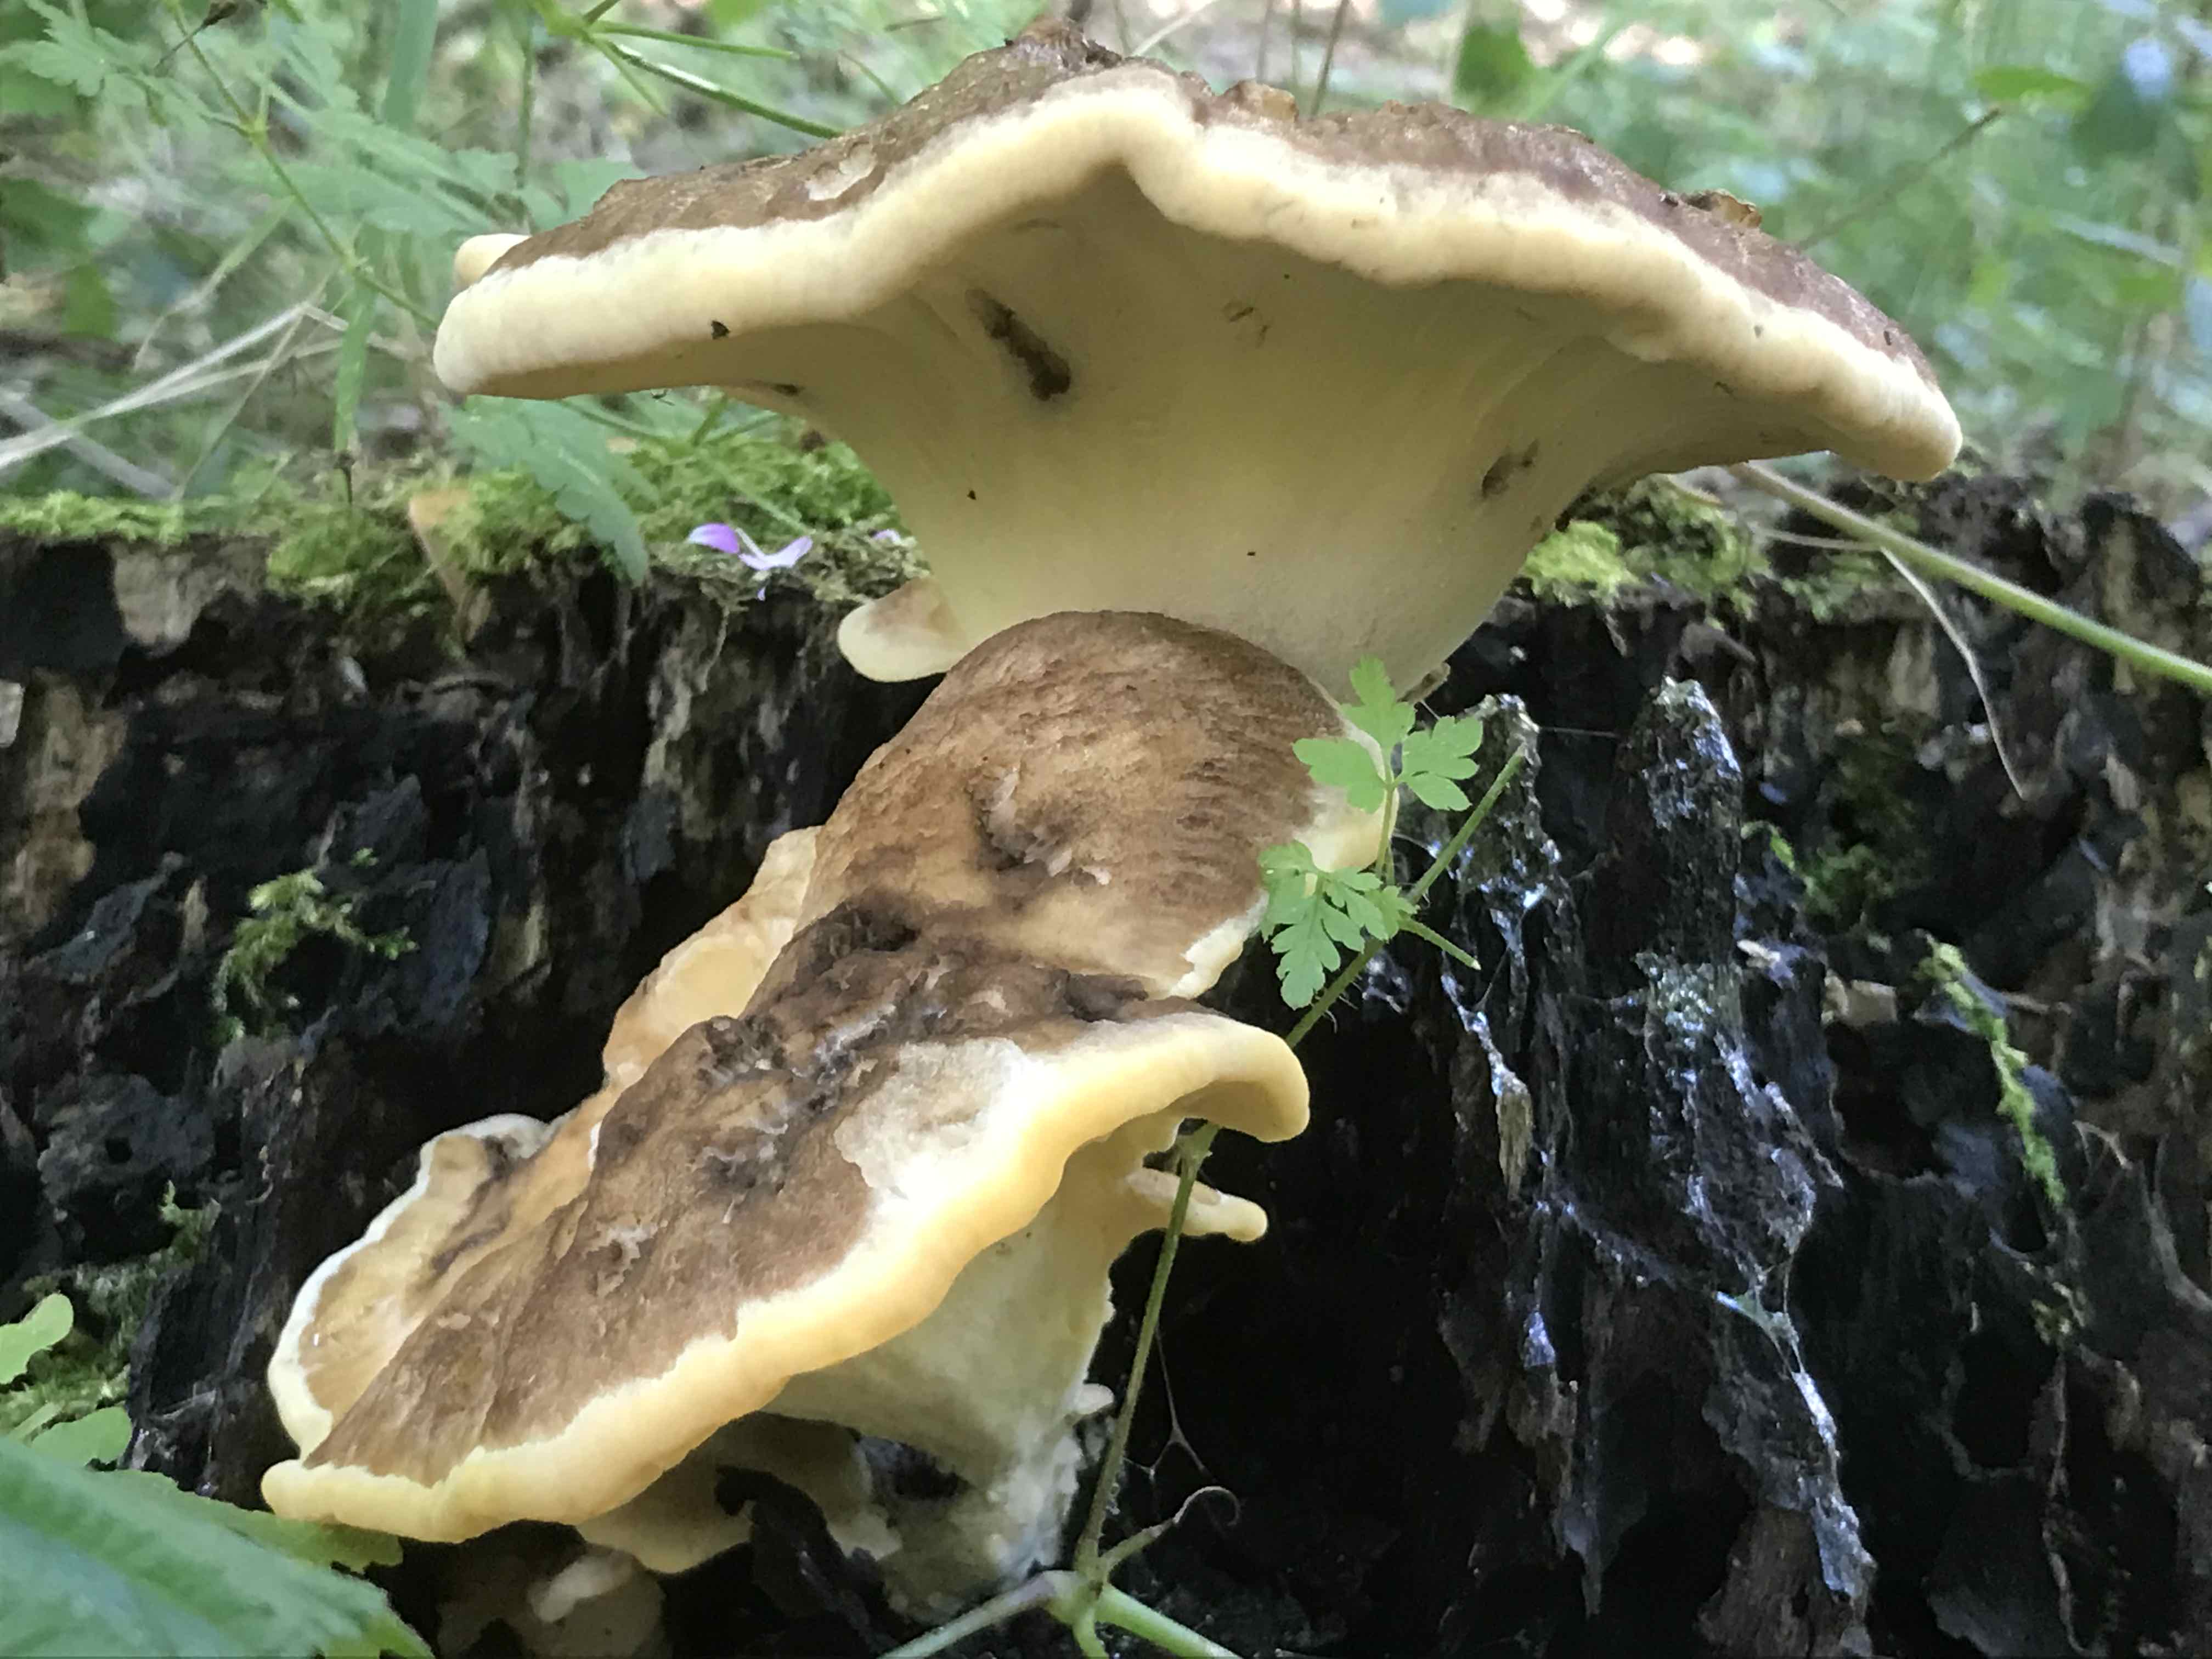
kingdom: Fungi
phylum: Basidiomycota
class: Agaricomycetes
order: Polyporales
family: Meripilaceae
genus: Meripilus
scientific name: Meripilus giganteus
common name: kæmpeporesvamp
